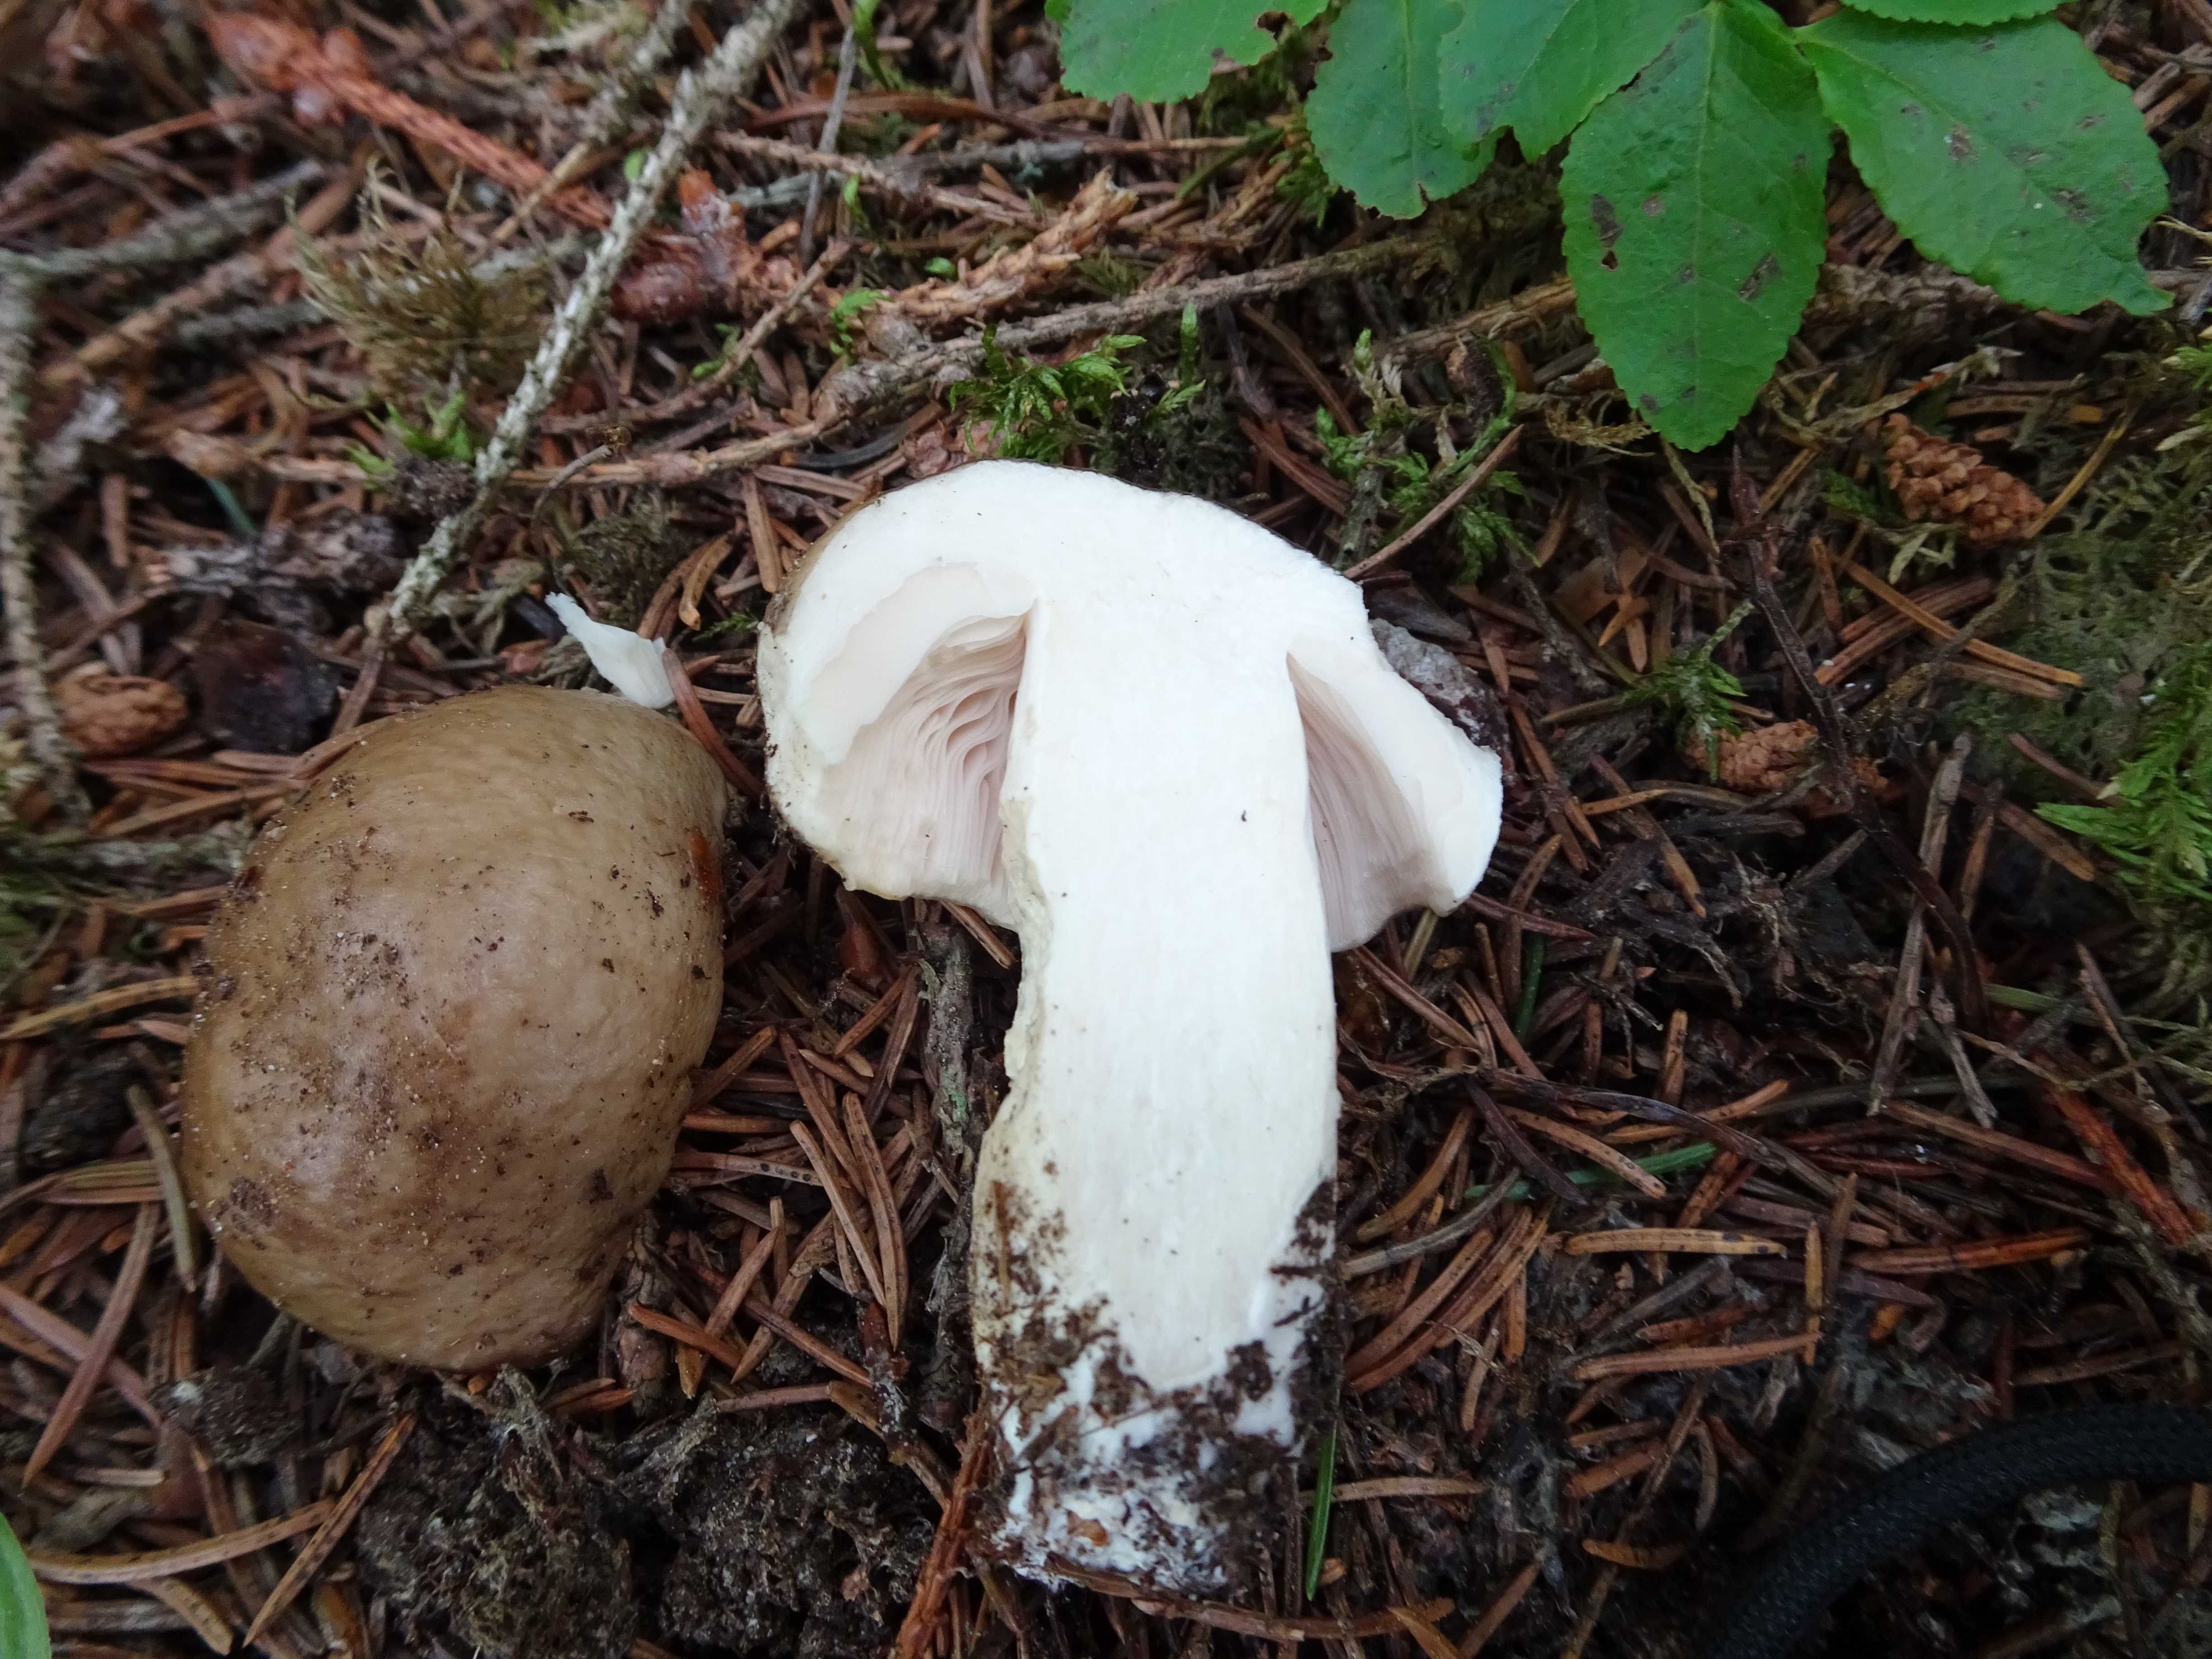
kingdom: Fungi
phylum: Basidiomycota
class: Agaricomycetes
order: Russulales
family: Russulaceae
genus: Russula
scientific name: Russula consobrina
